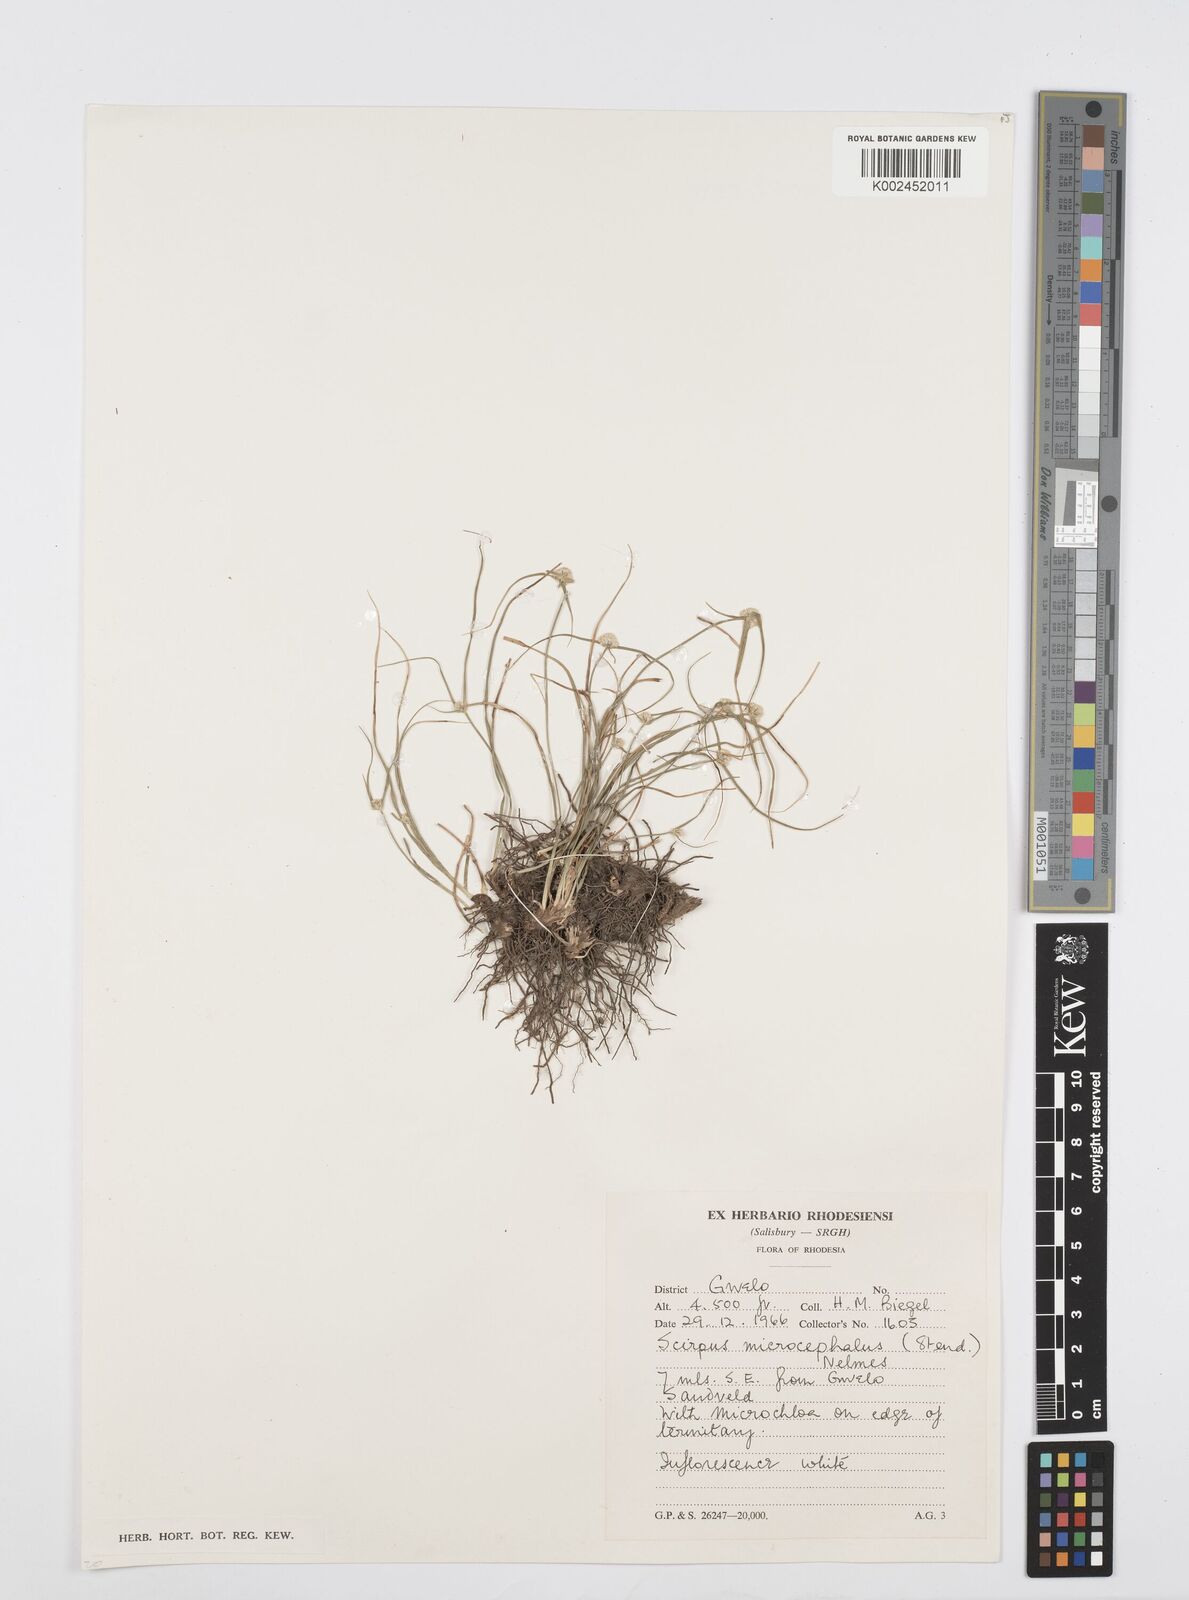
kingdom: Plantae
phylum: Tracheophyta
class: Liliopsida
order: Poales
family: Cyperaceae
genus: Cyperus
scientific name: Cyperus conglobatus
